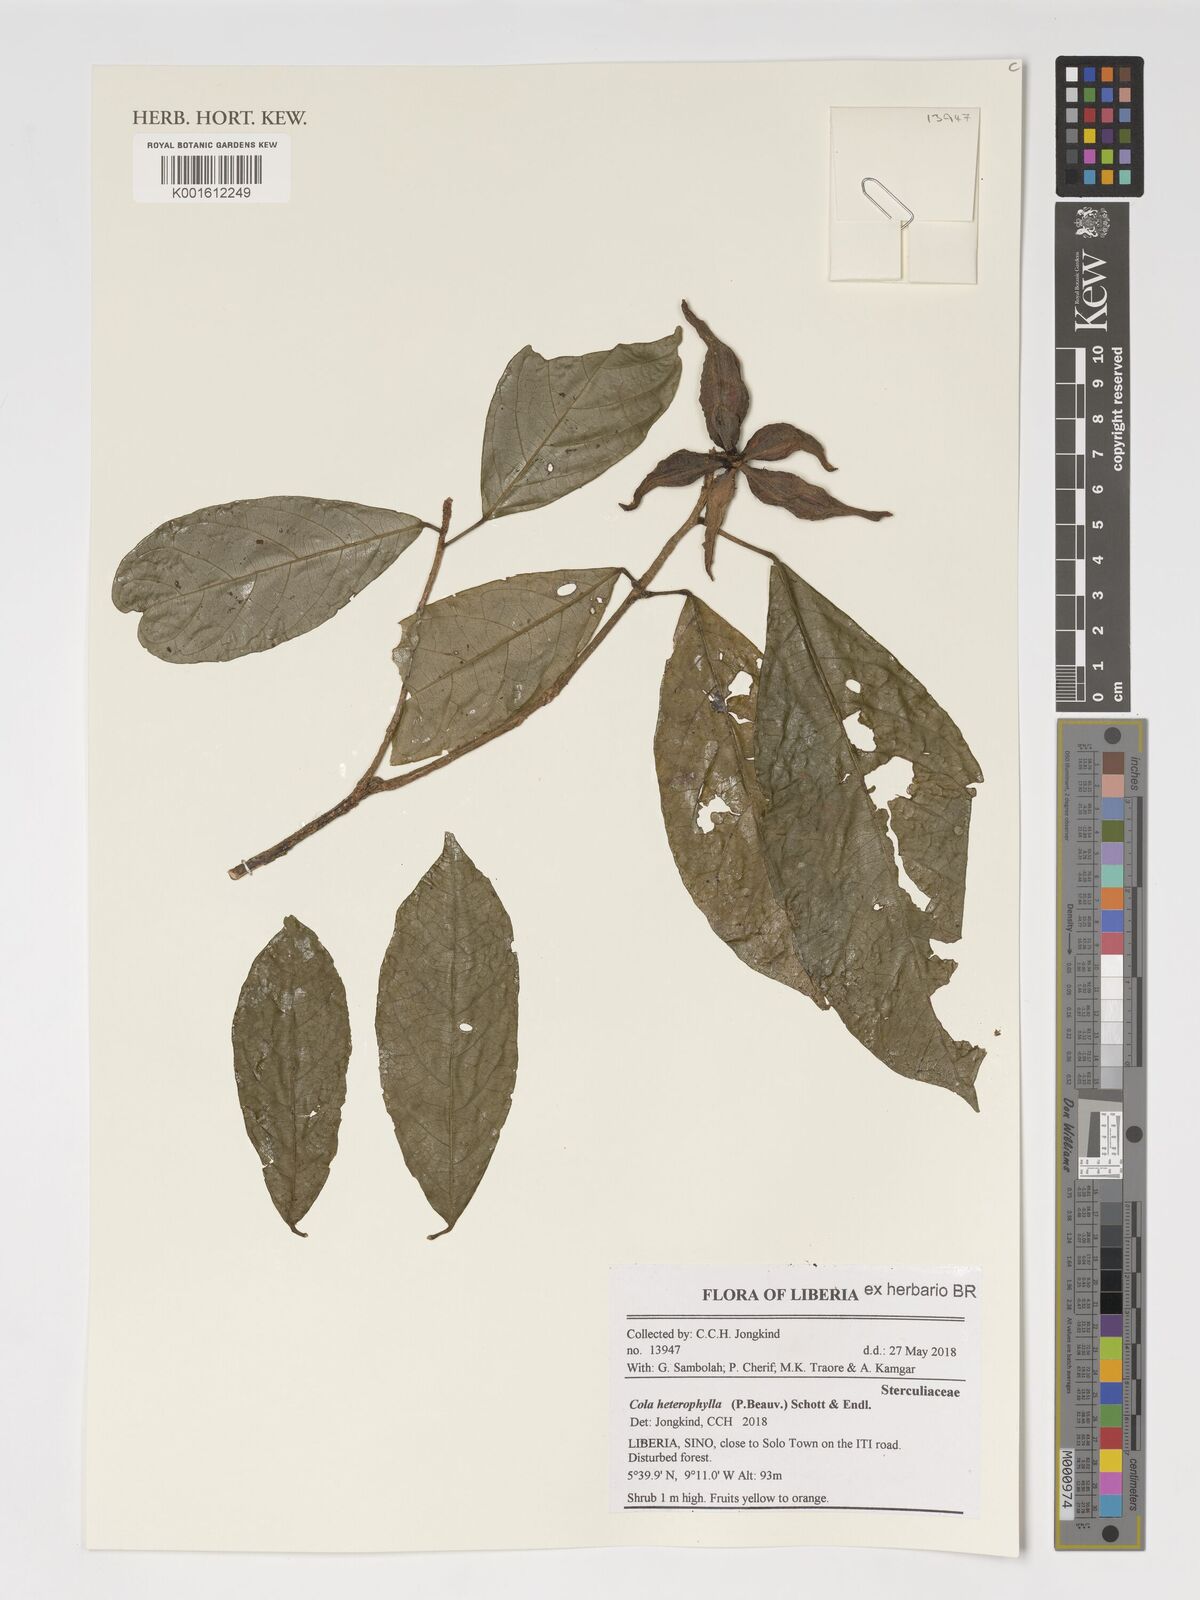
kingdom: Plantae
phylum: Tracheophyta
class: Magnoliopsida
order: Malvales
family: Malvaceae
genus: Cola
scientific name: Cola heterophylla
